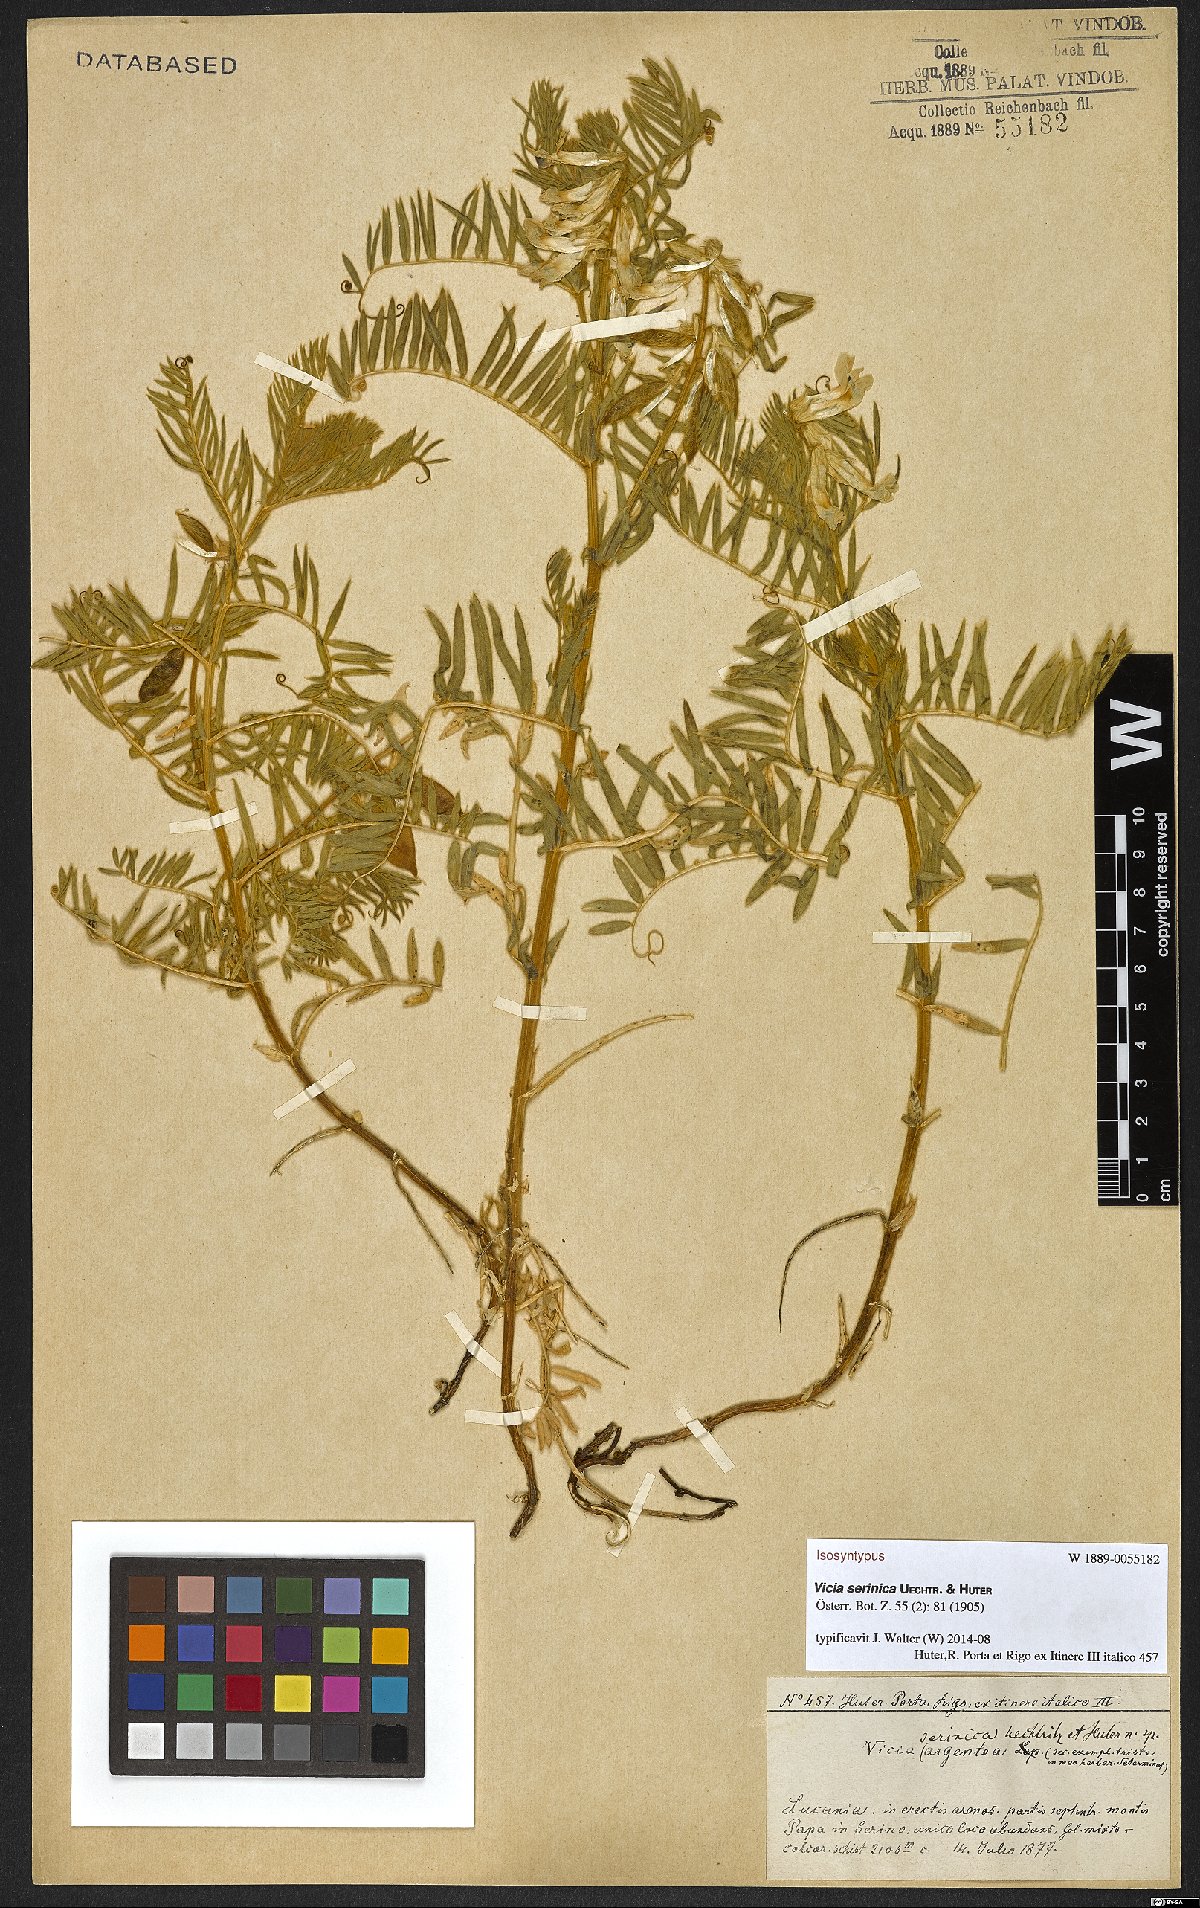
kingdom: Plantae
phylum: Tracheophyta
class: Magnoliopsida
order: Fabales
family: Fabaceae
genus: Vicia
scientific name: Vicia canescens
